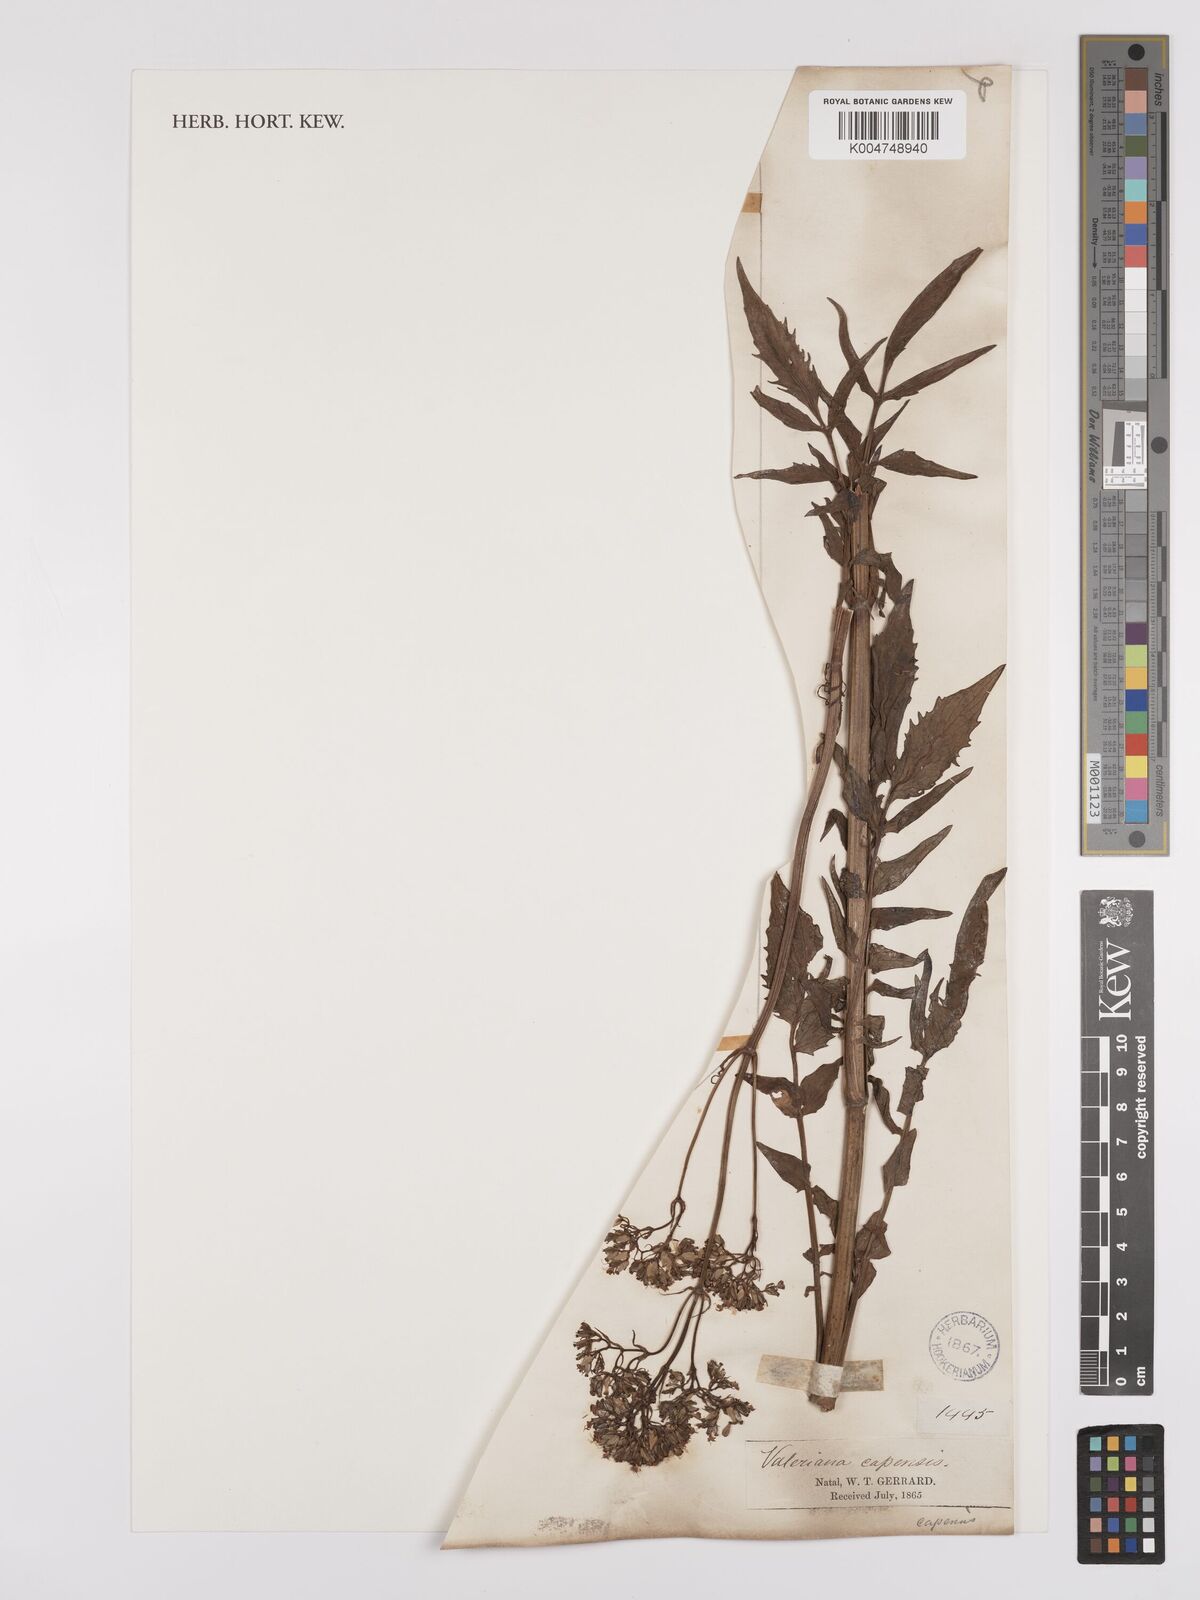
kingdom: Plantae
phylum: Tracheophyta
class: Magnoliopsida
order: Dipsacales
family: Caprifoliaceae
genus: Valeriana
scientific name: Valeriana capensis
